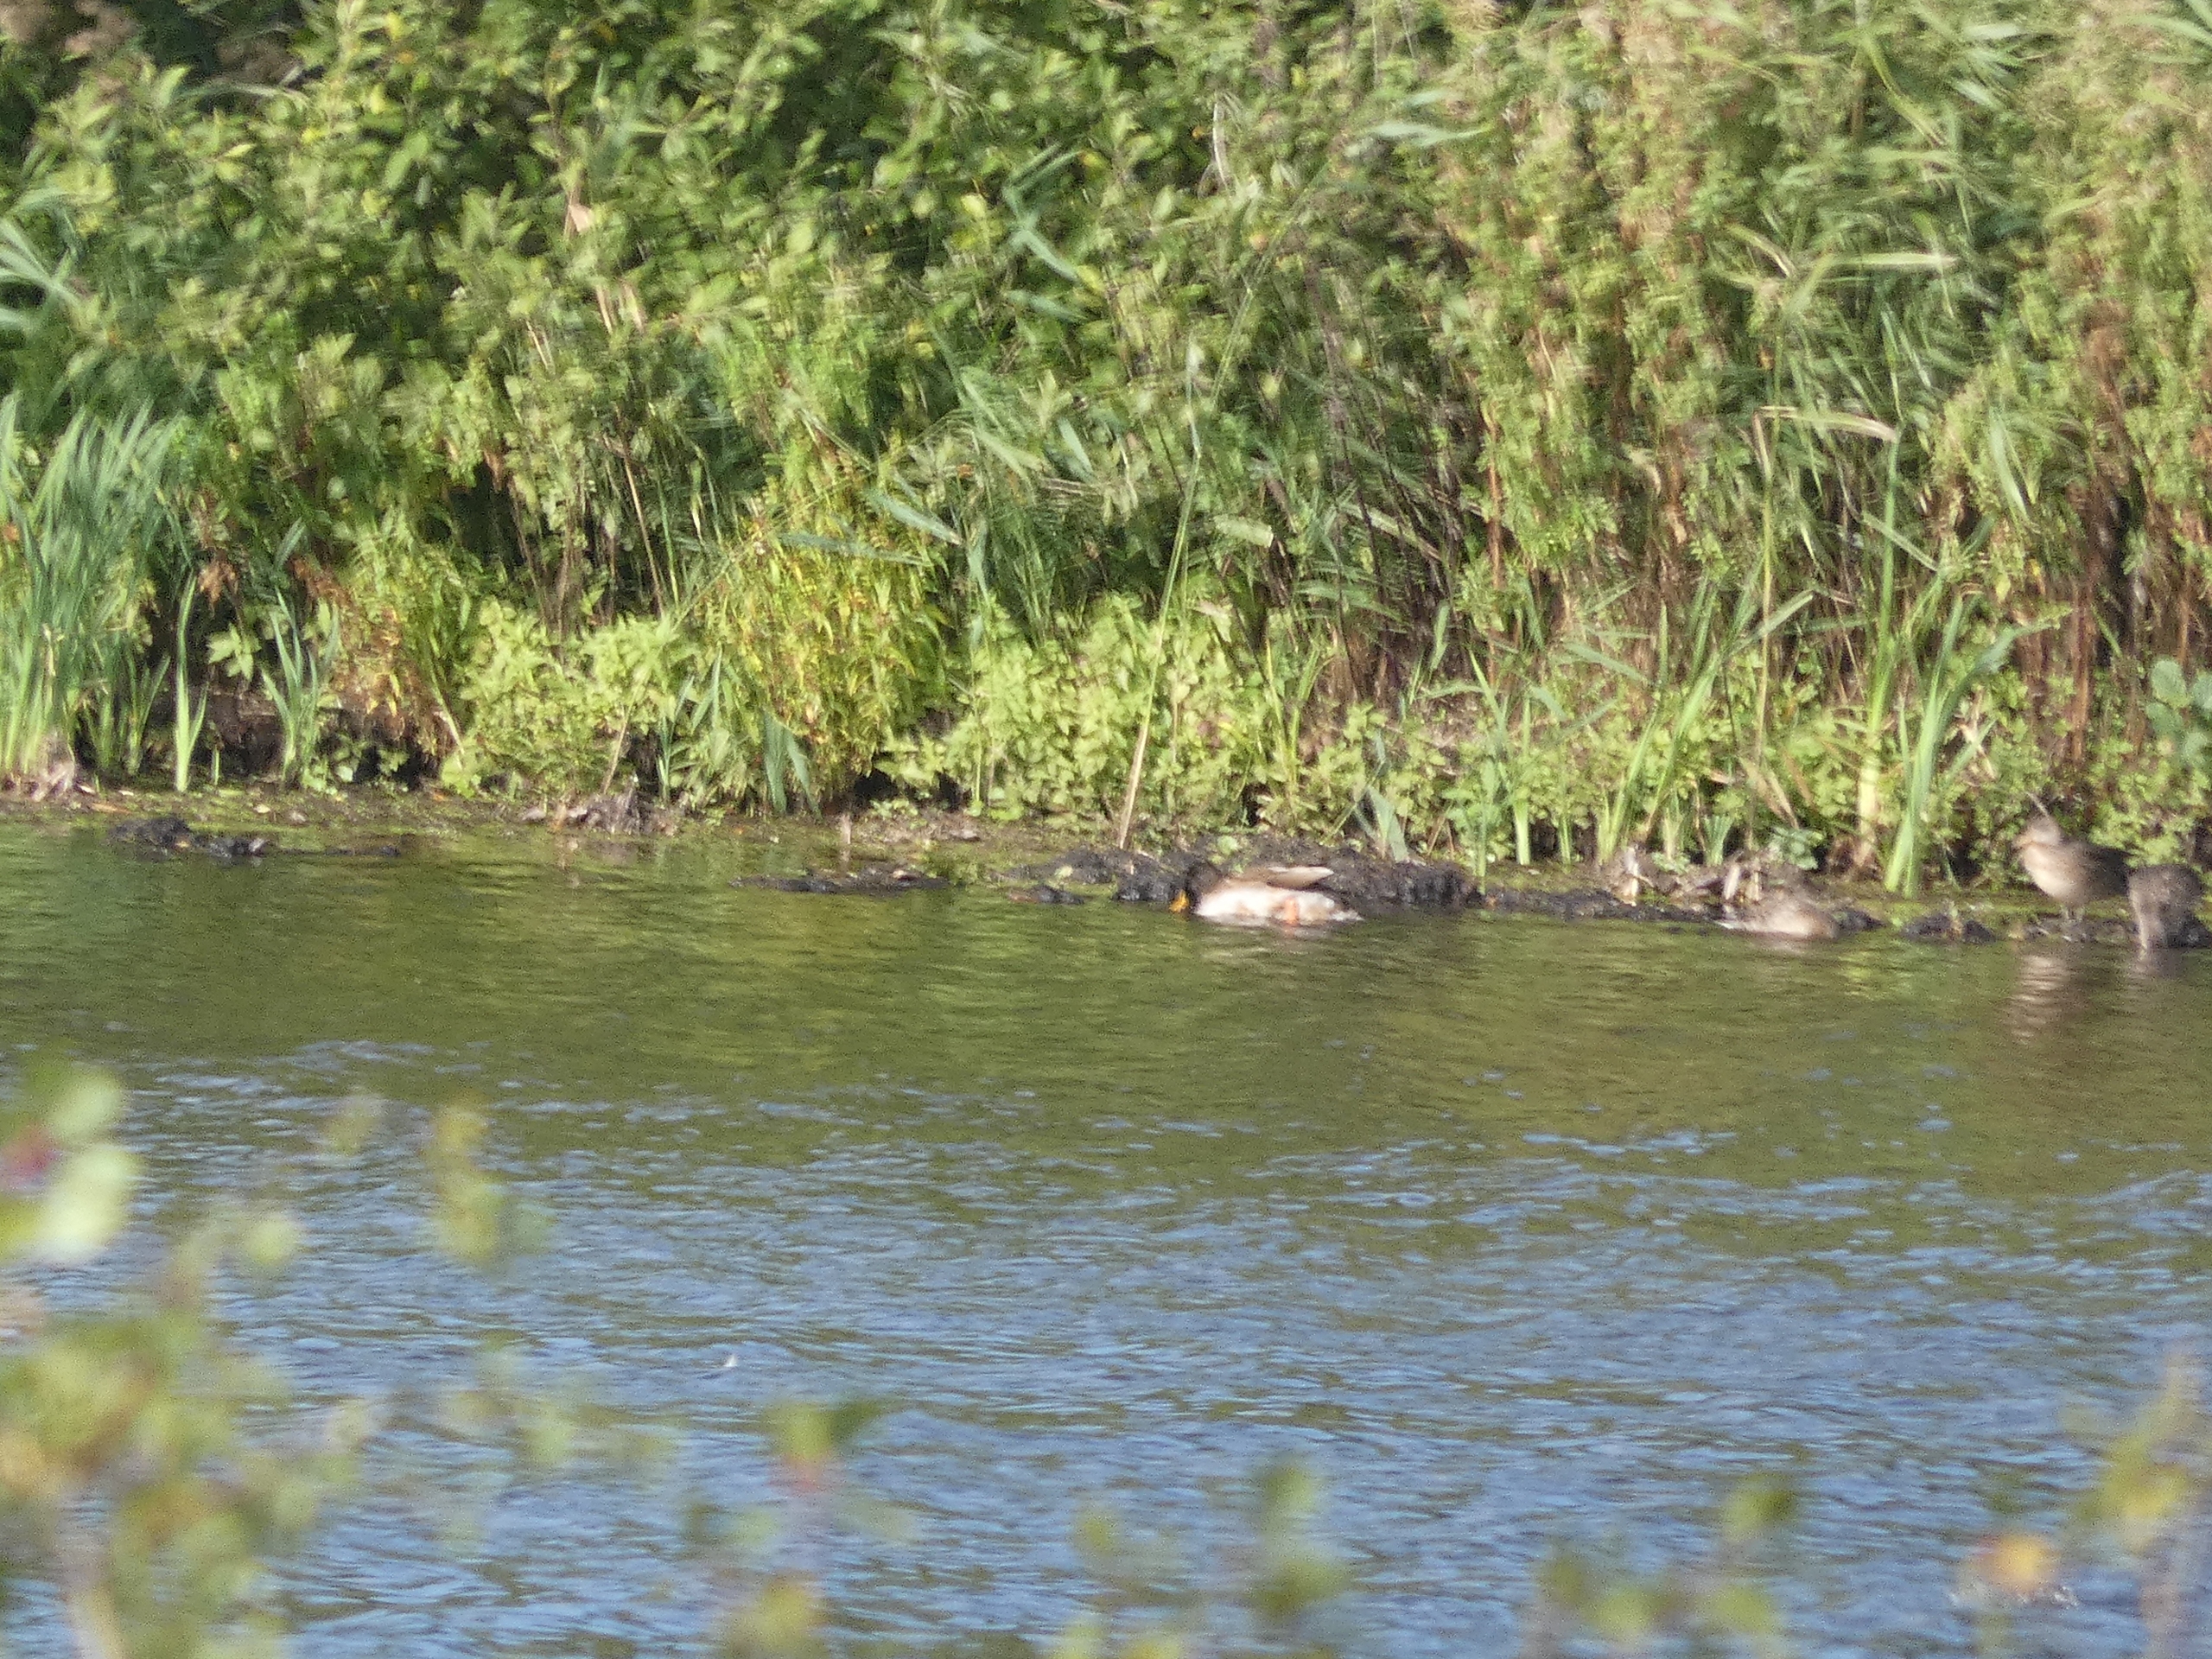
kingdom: Animalia
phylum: Chordata
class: Aves
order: Anseriformes
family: Anatidae
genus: Anas
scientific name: Anas platyrhynchos
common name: Gråand
